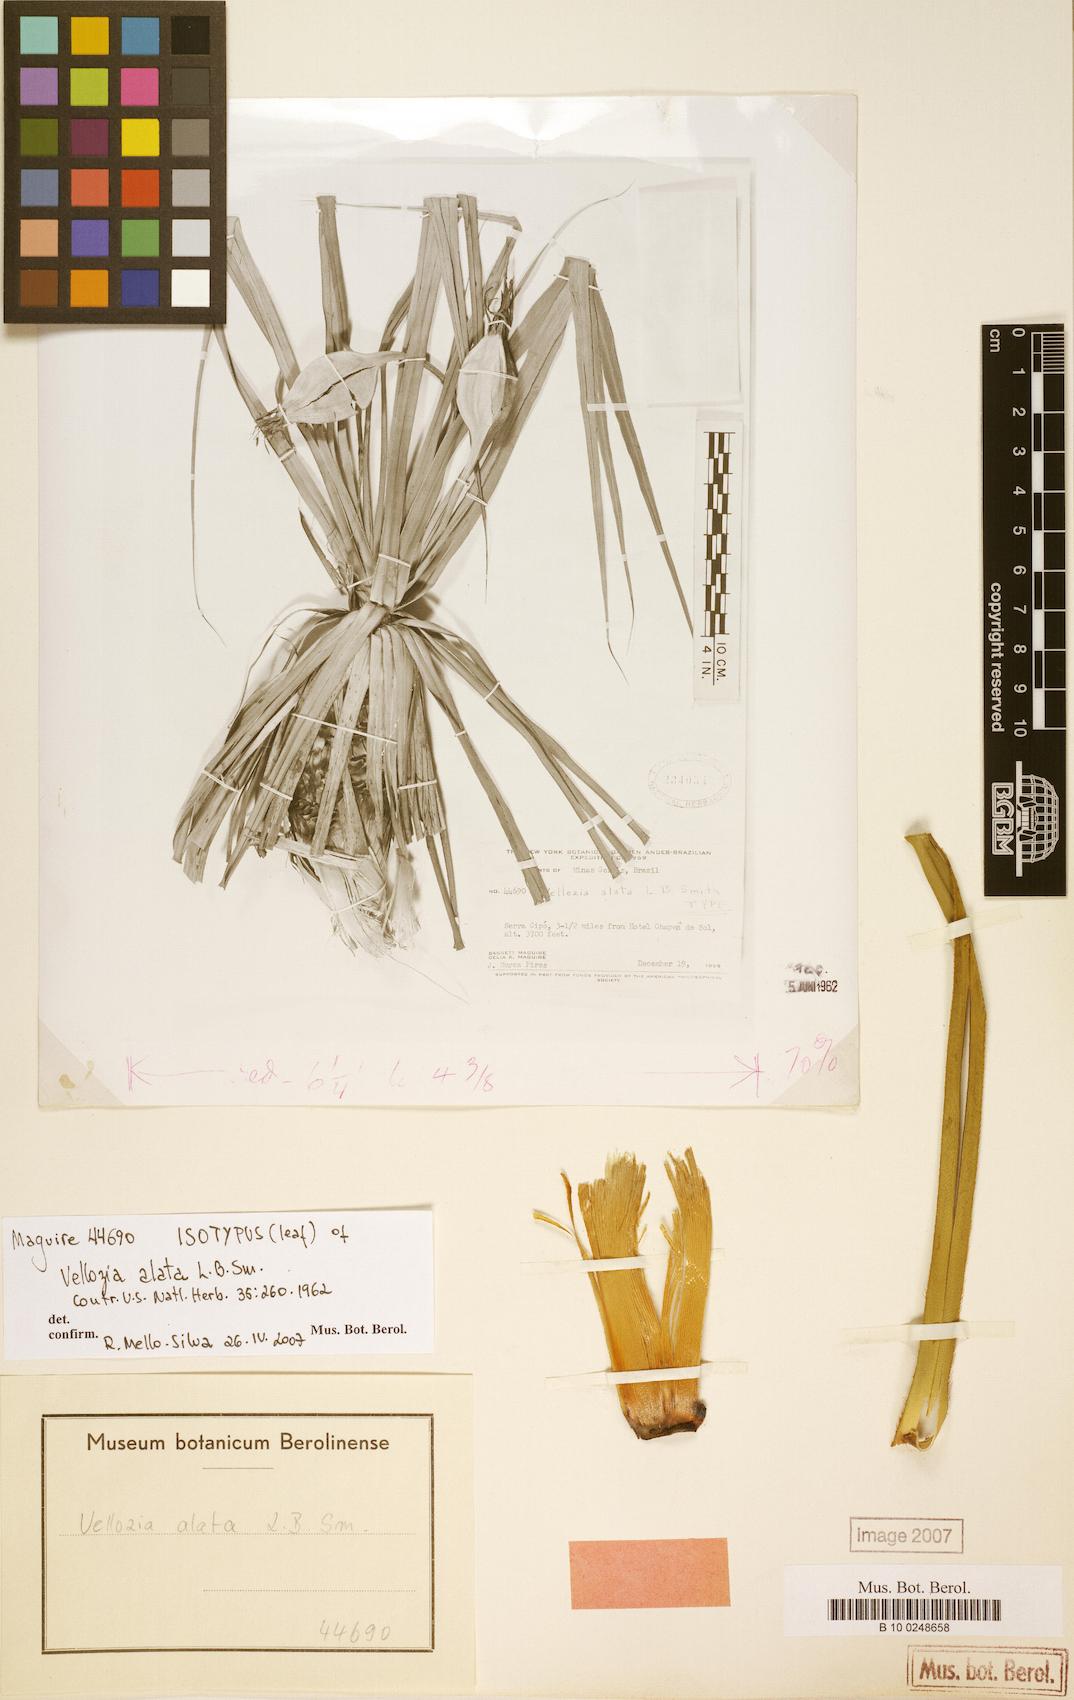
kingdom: Plantae
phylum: Tracheophyta
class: Liliopsida
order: Pandanales
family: Velloziaceae
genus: Vellozia
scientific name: Vellozia alata
